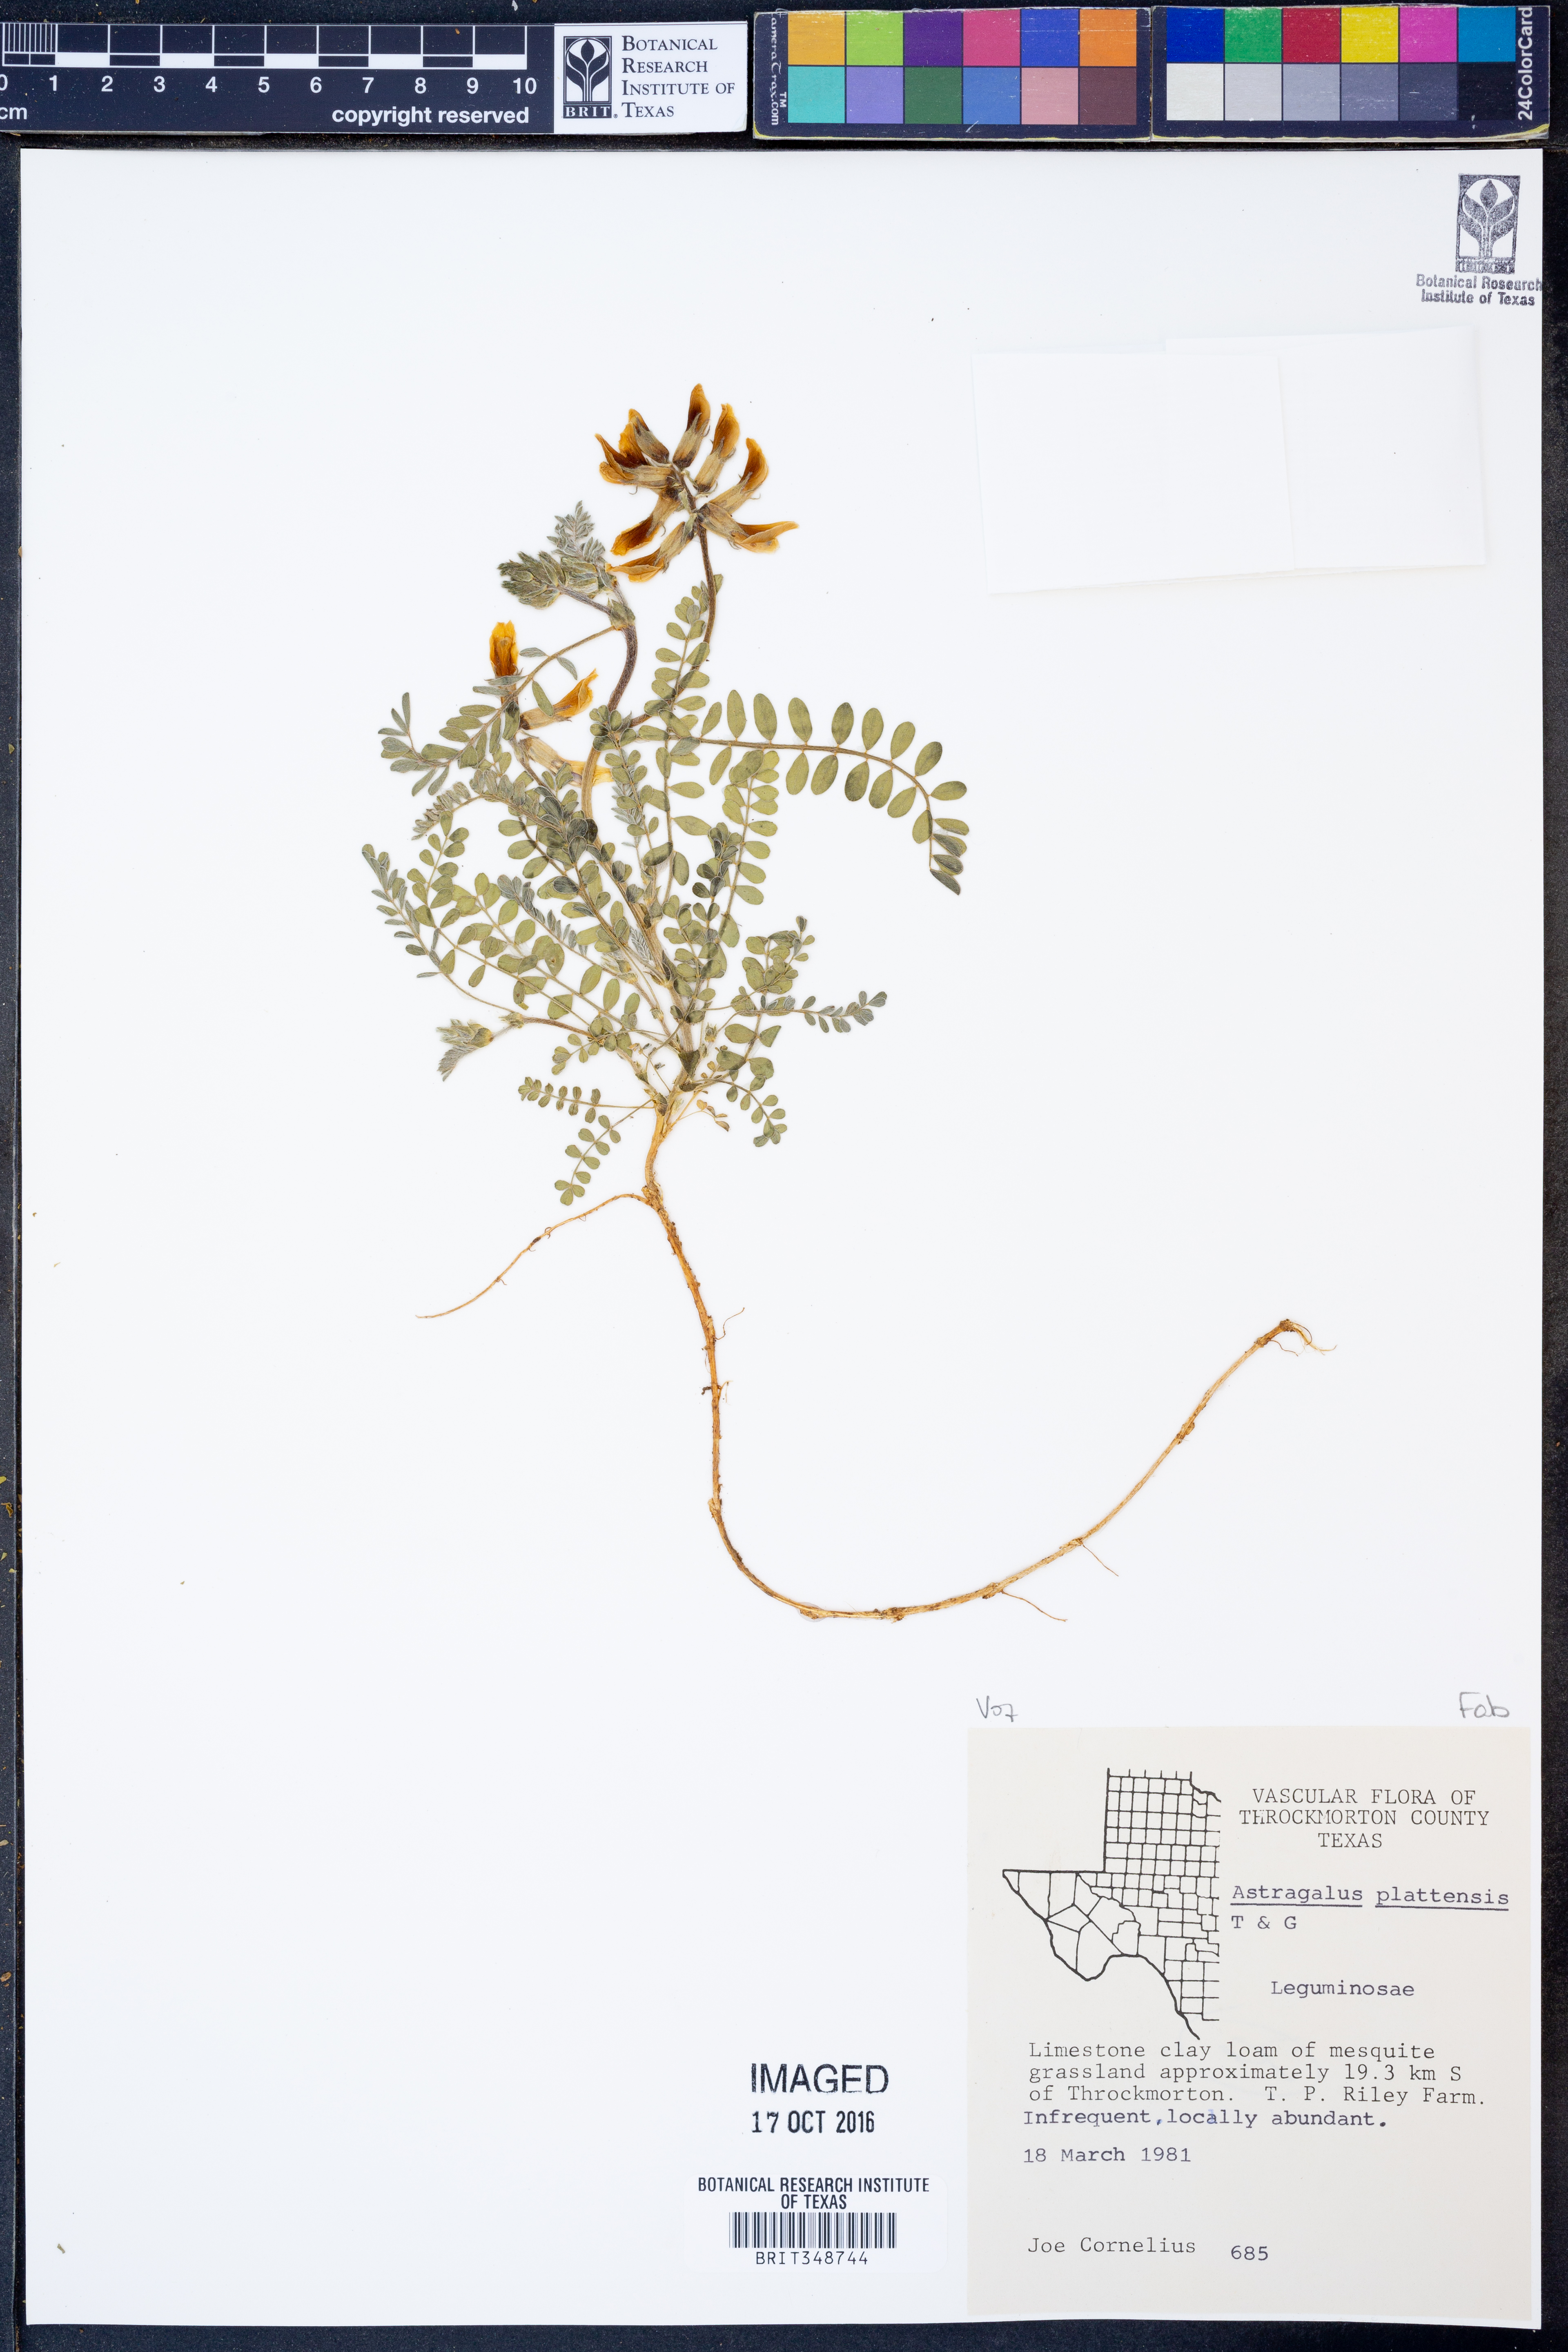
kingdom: Plantae
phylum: Tracheophyta
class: Magnoliopsida
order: Fabales
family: Fabaceae
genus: Astragalus
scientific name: Astragalus plattensis
